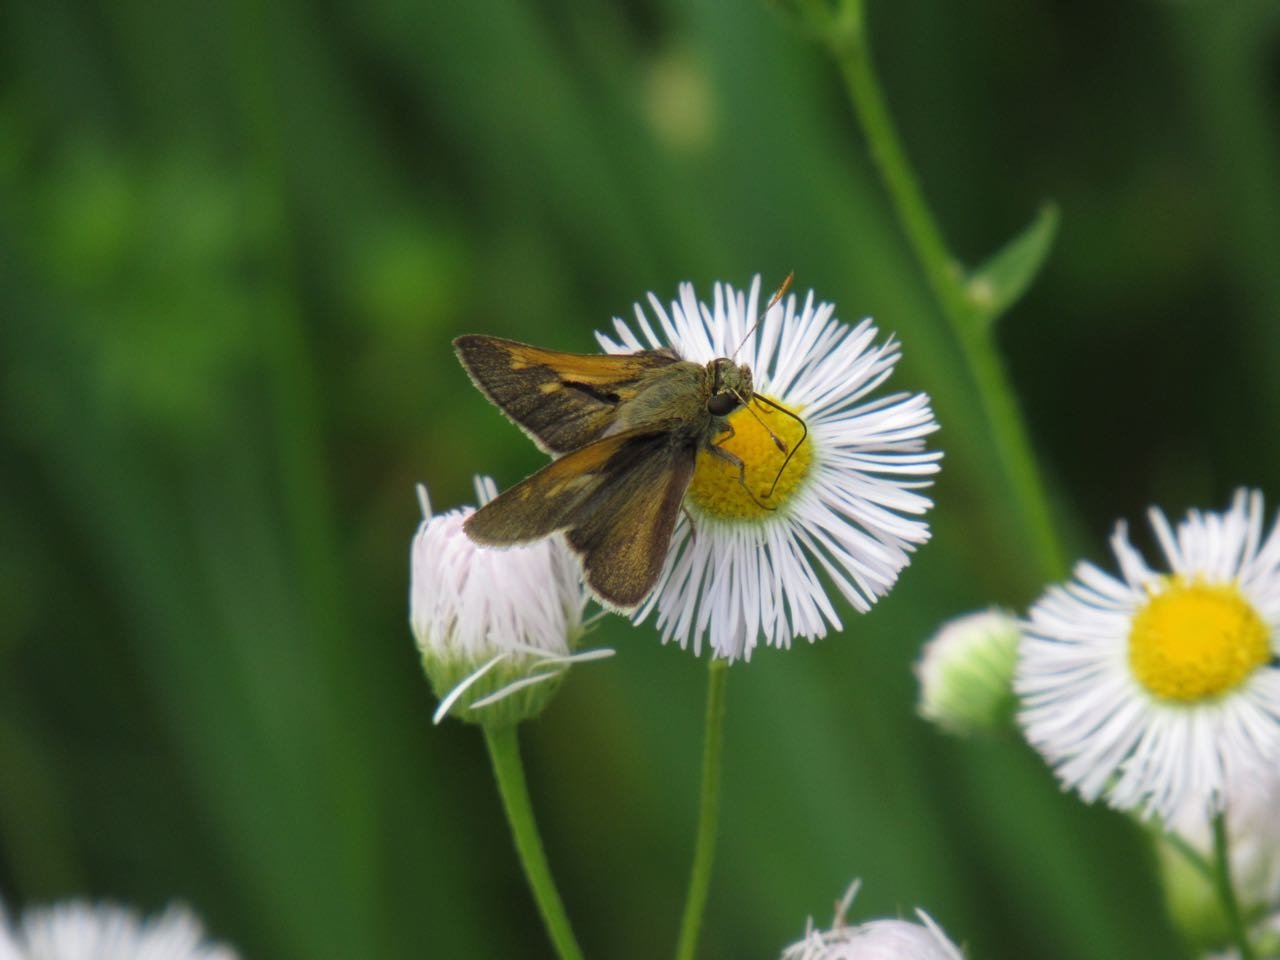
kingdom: Animalia
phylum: Arthropoda
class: Insecta
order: Lepidoptera
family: Hesperiidae
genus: Polites
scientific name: Polites themistocles
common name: Tawny-edged Skipper
